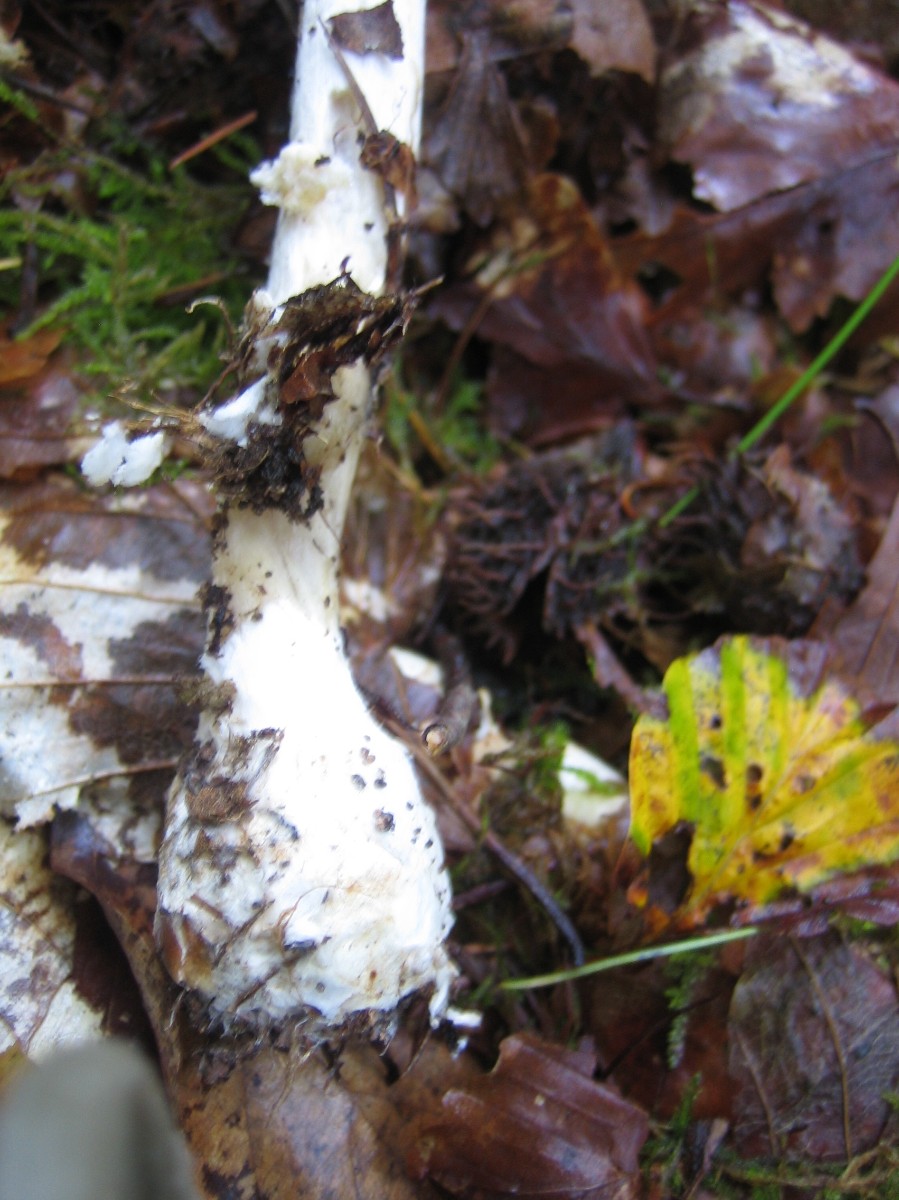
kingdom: Fungi
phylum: Basidiomycota
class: Agaricomycetes
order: Agaricales
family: Amanitaceae
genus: Amanita
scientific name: Amanita virosa
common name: snehvid fluesvamp
